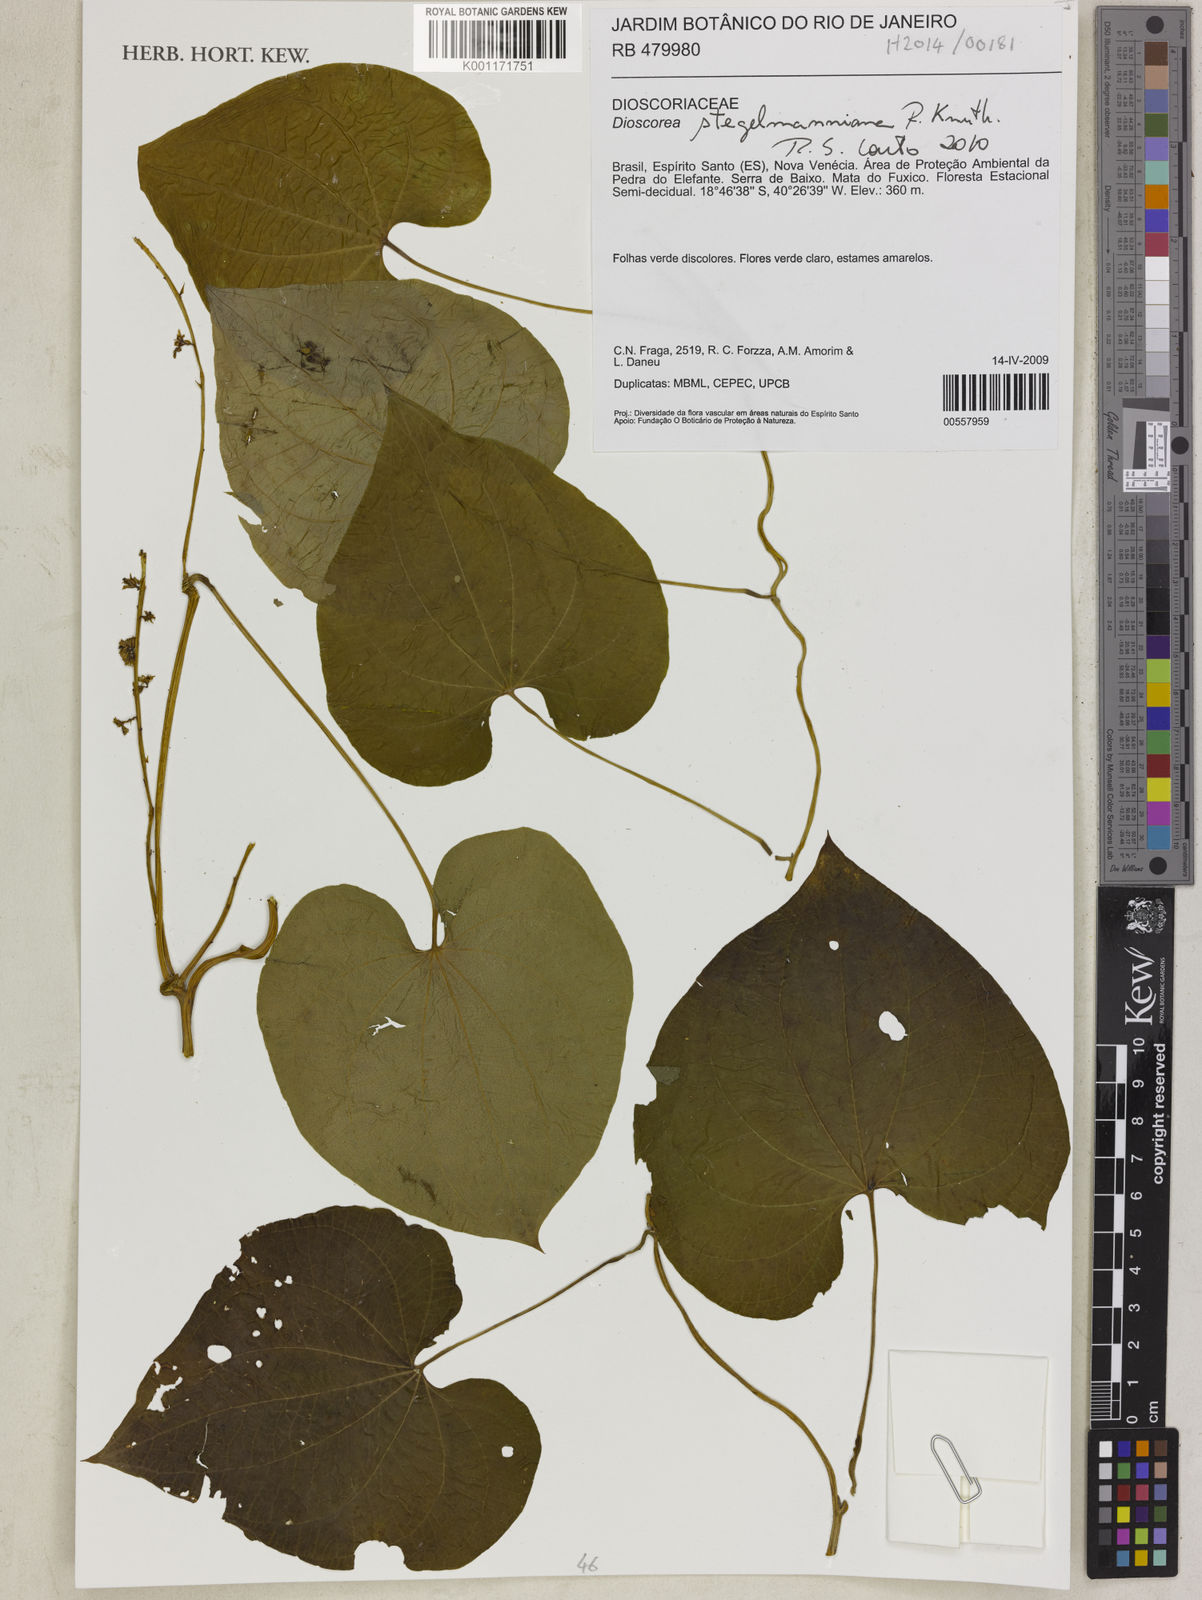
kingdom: Plantae
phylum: Tracheophyta
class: Liliopsida
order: Dioscoreales
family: Dioscoreaceae
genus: Dioscorea
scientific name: Dioscorea stegelmanniana
